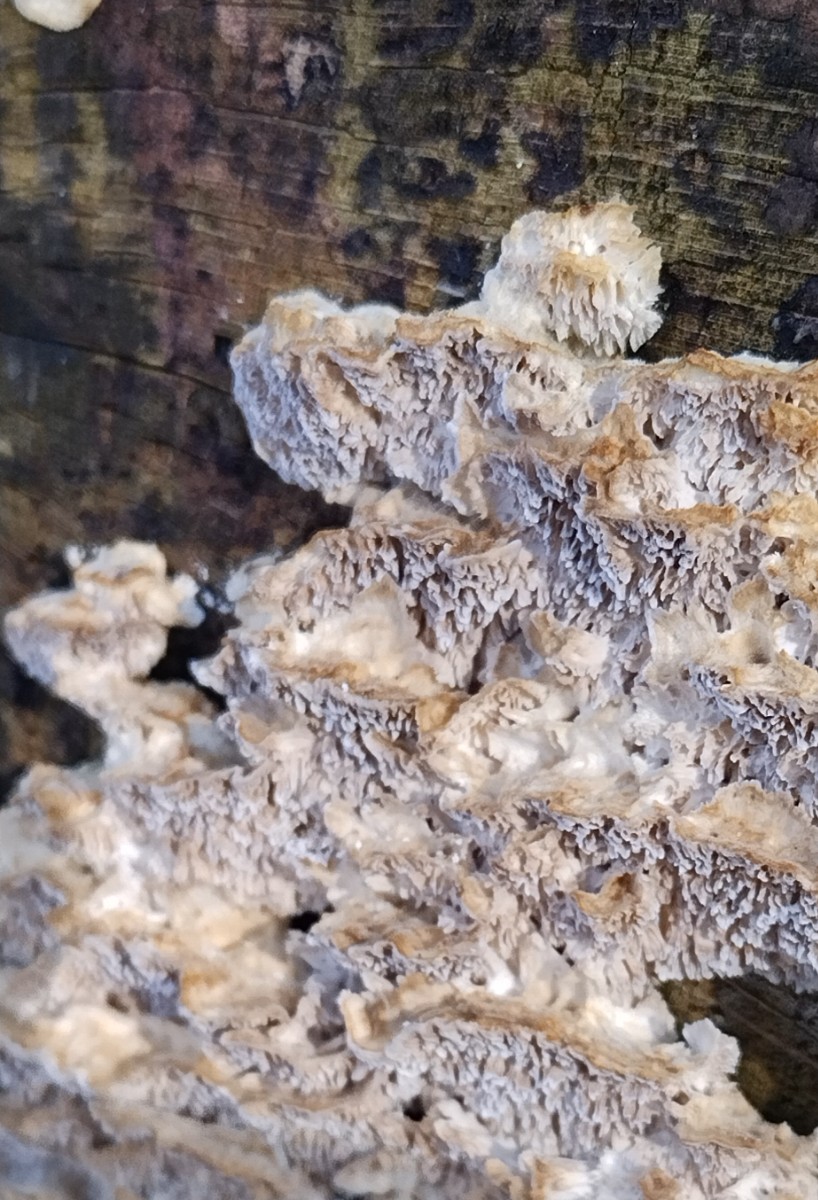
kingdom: Fungi
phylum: Basidiomycota
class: Agaricomycetes
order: Polyporales
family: Polyporaceae
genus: Trametes
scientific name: Trametes versicolor
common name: broget læderporesvamp
